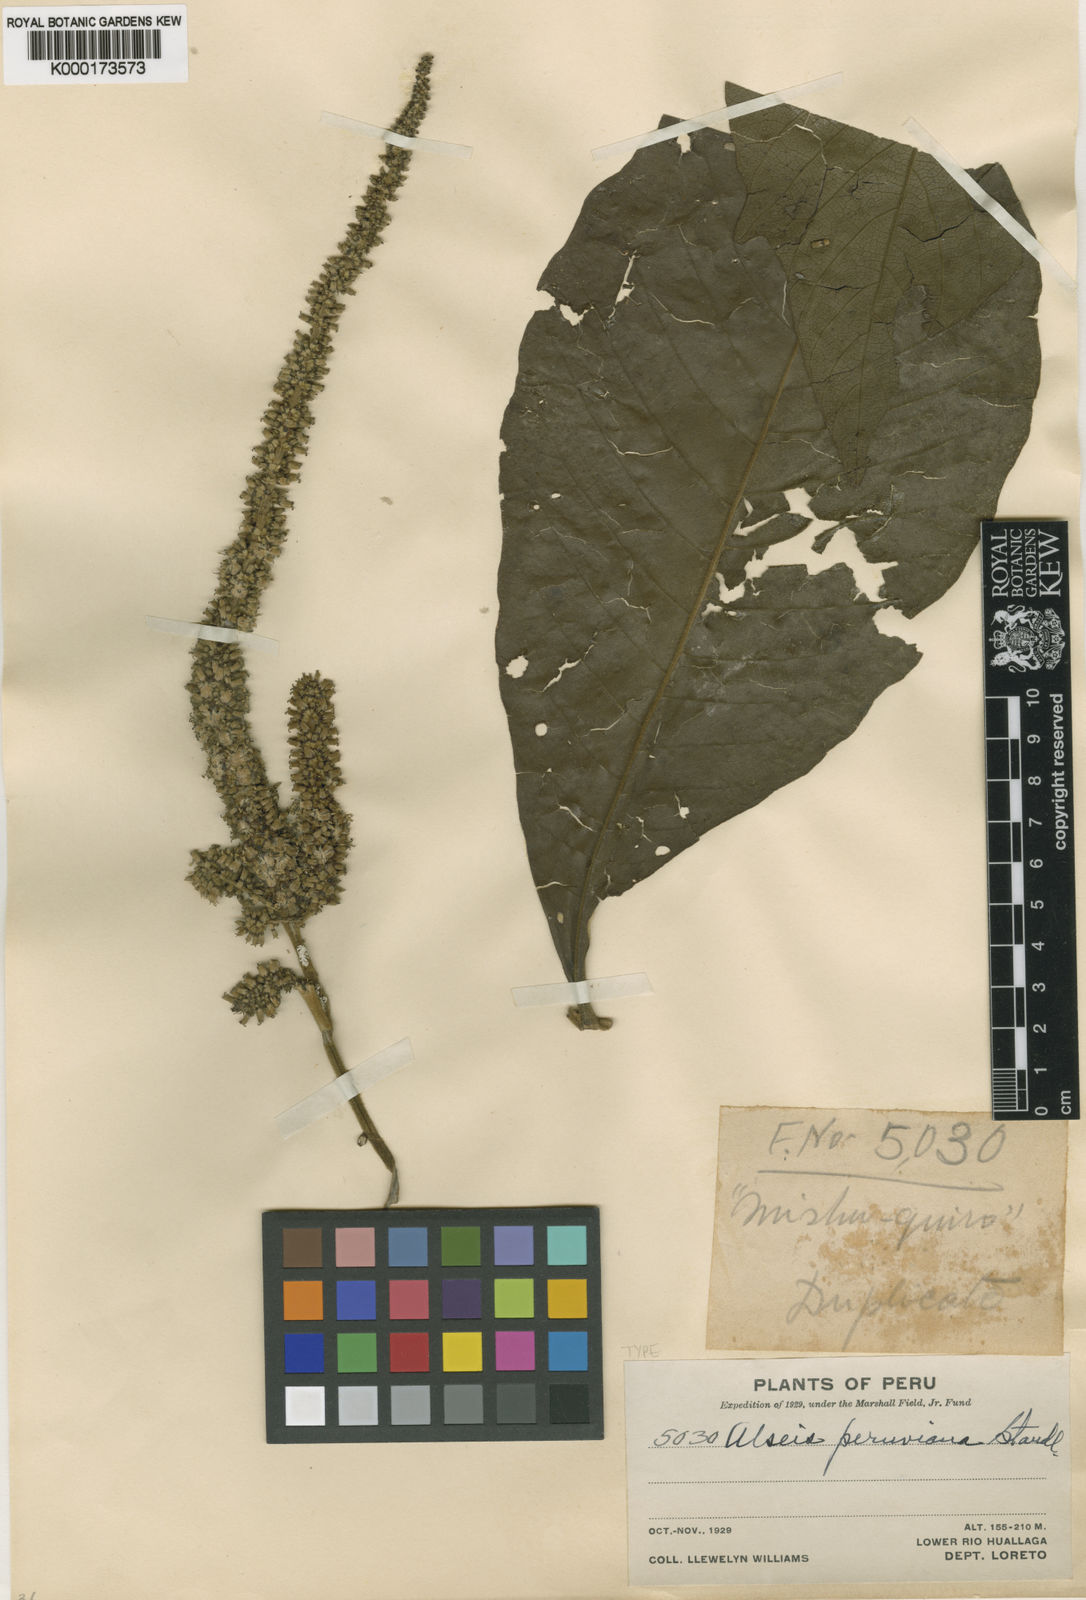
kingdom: Plantae
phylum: Tracheophyta
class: Magnoliopsida
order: Gentianales
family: Rubiaceae
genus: Alseis
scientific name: Alseis peruviana
